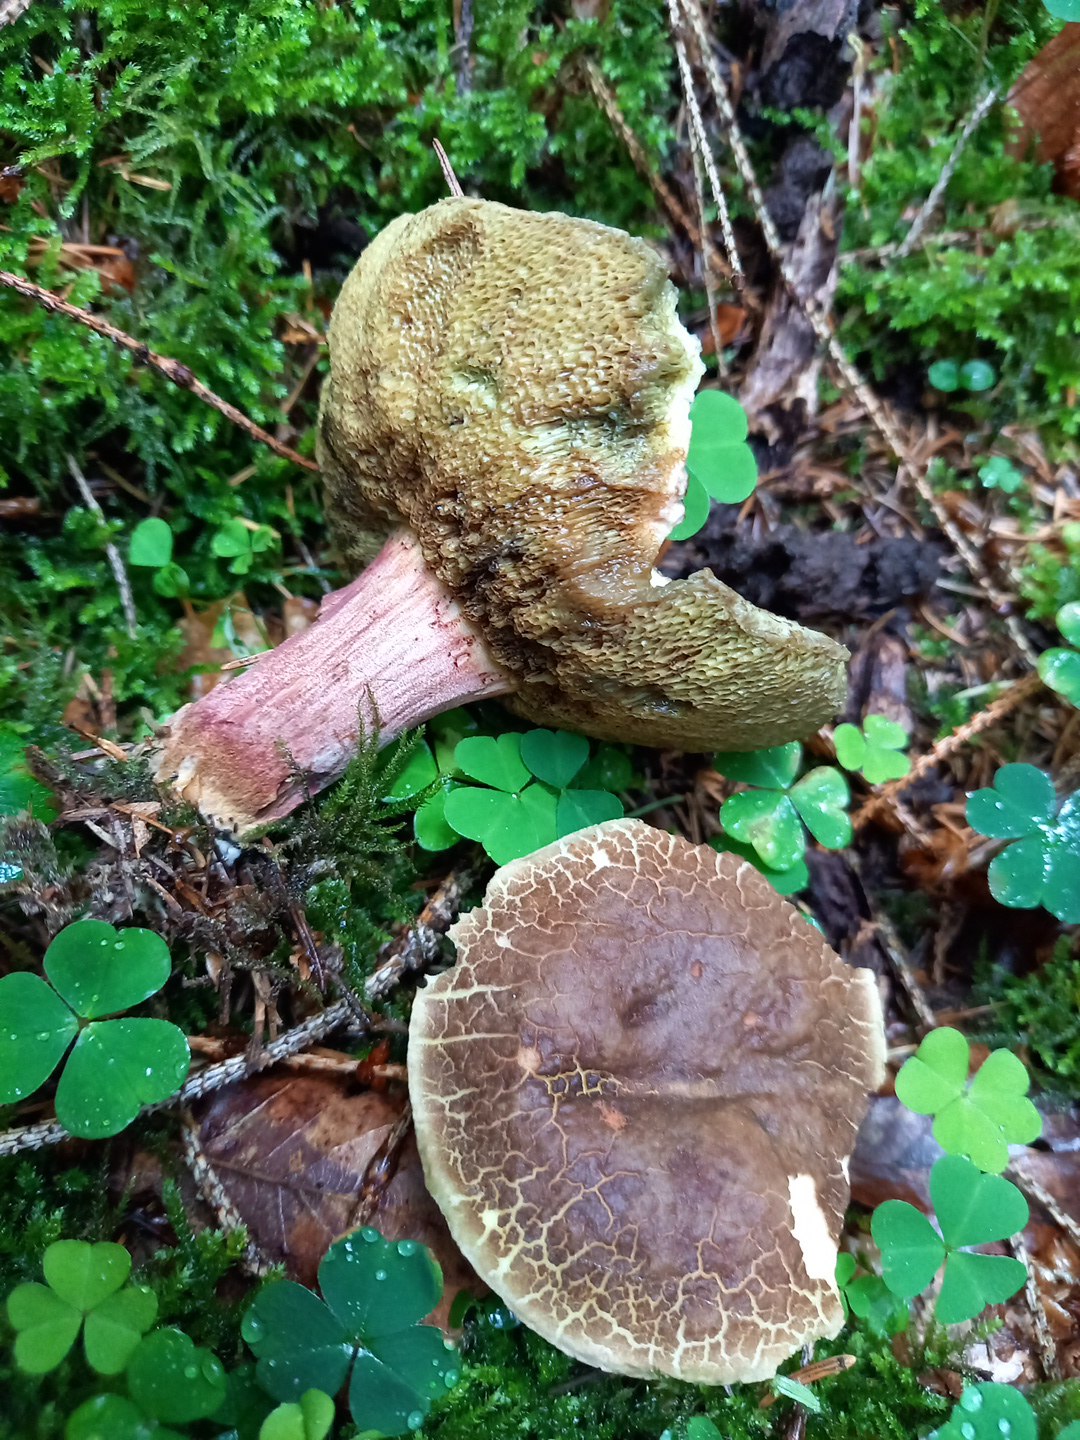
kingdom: Fungi
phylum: Basidiomycota
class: Agaricomycetes
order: Boletales
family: Boletaceae
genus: Xerocomellus
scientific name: Xerocomellus chrysenteron
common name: rødsprukken rørhat
